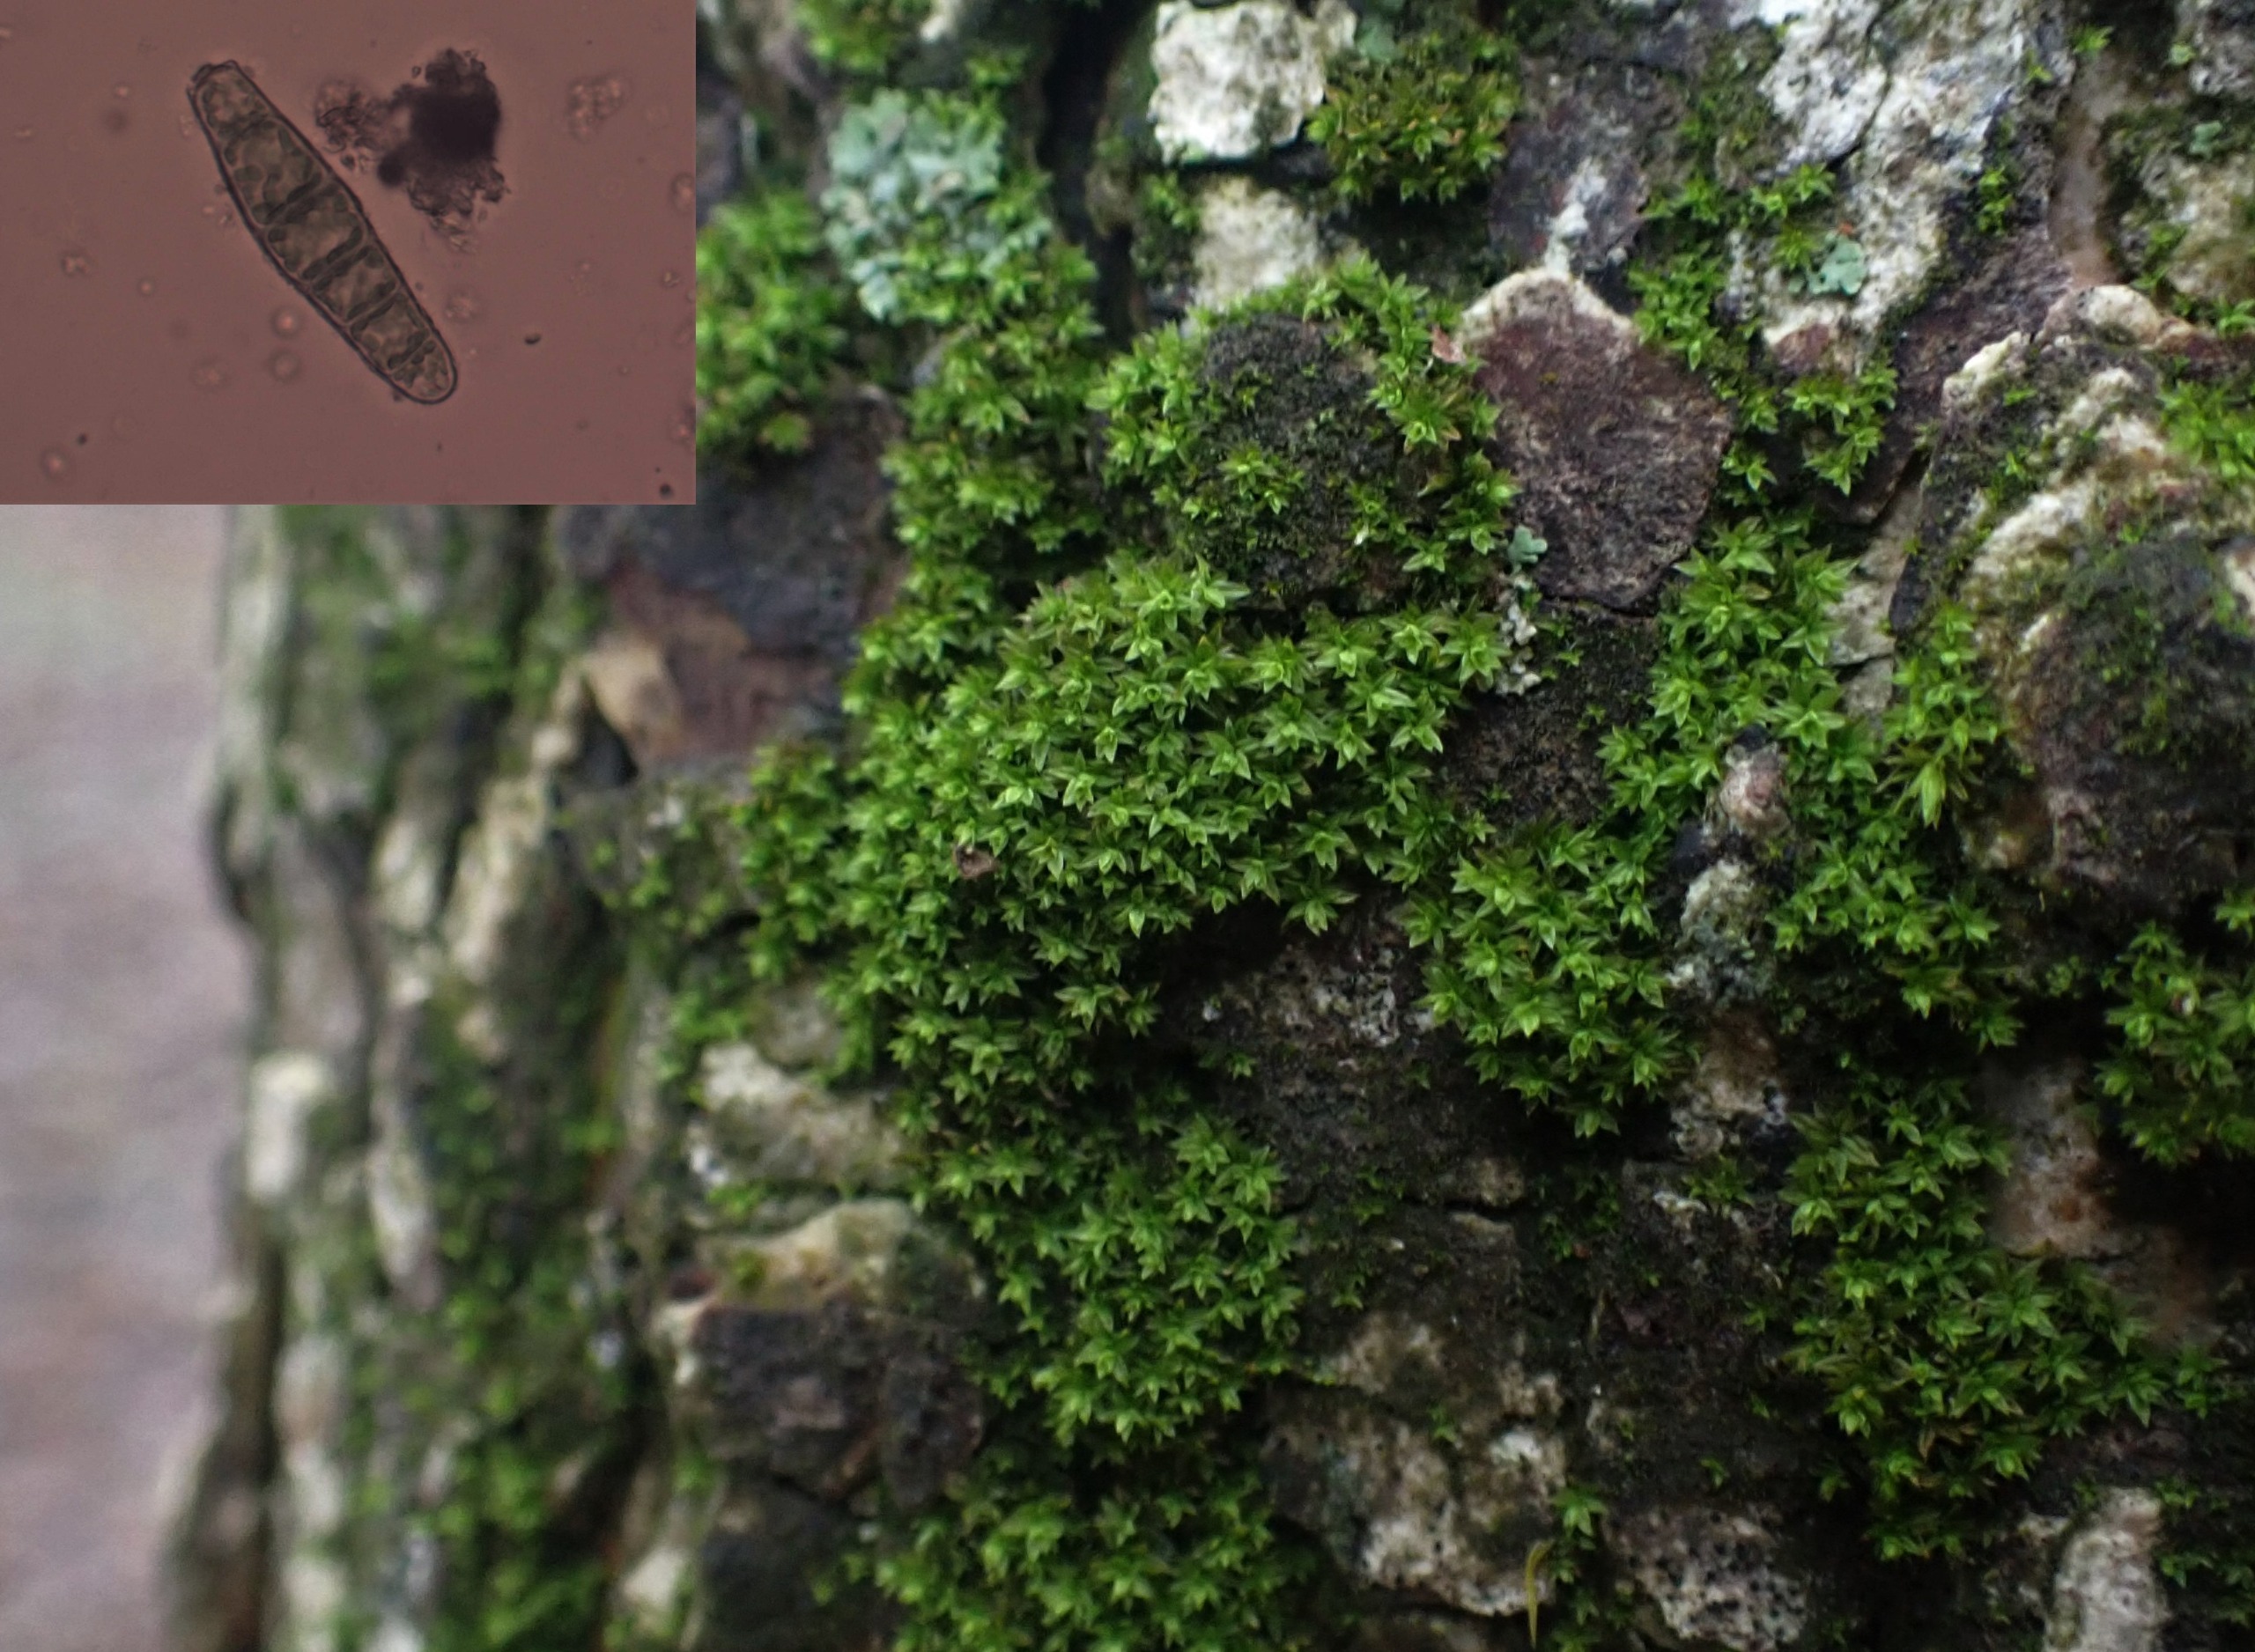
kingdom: Plantae
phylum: Bryophyta
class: Bryopsida
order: Orthotrichales
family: Orthotrichaceae
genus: Zygodon
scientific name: Zygodon conoideus
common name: Tand-køllemos
